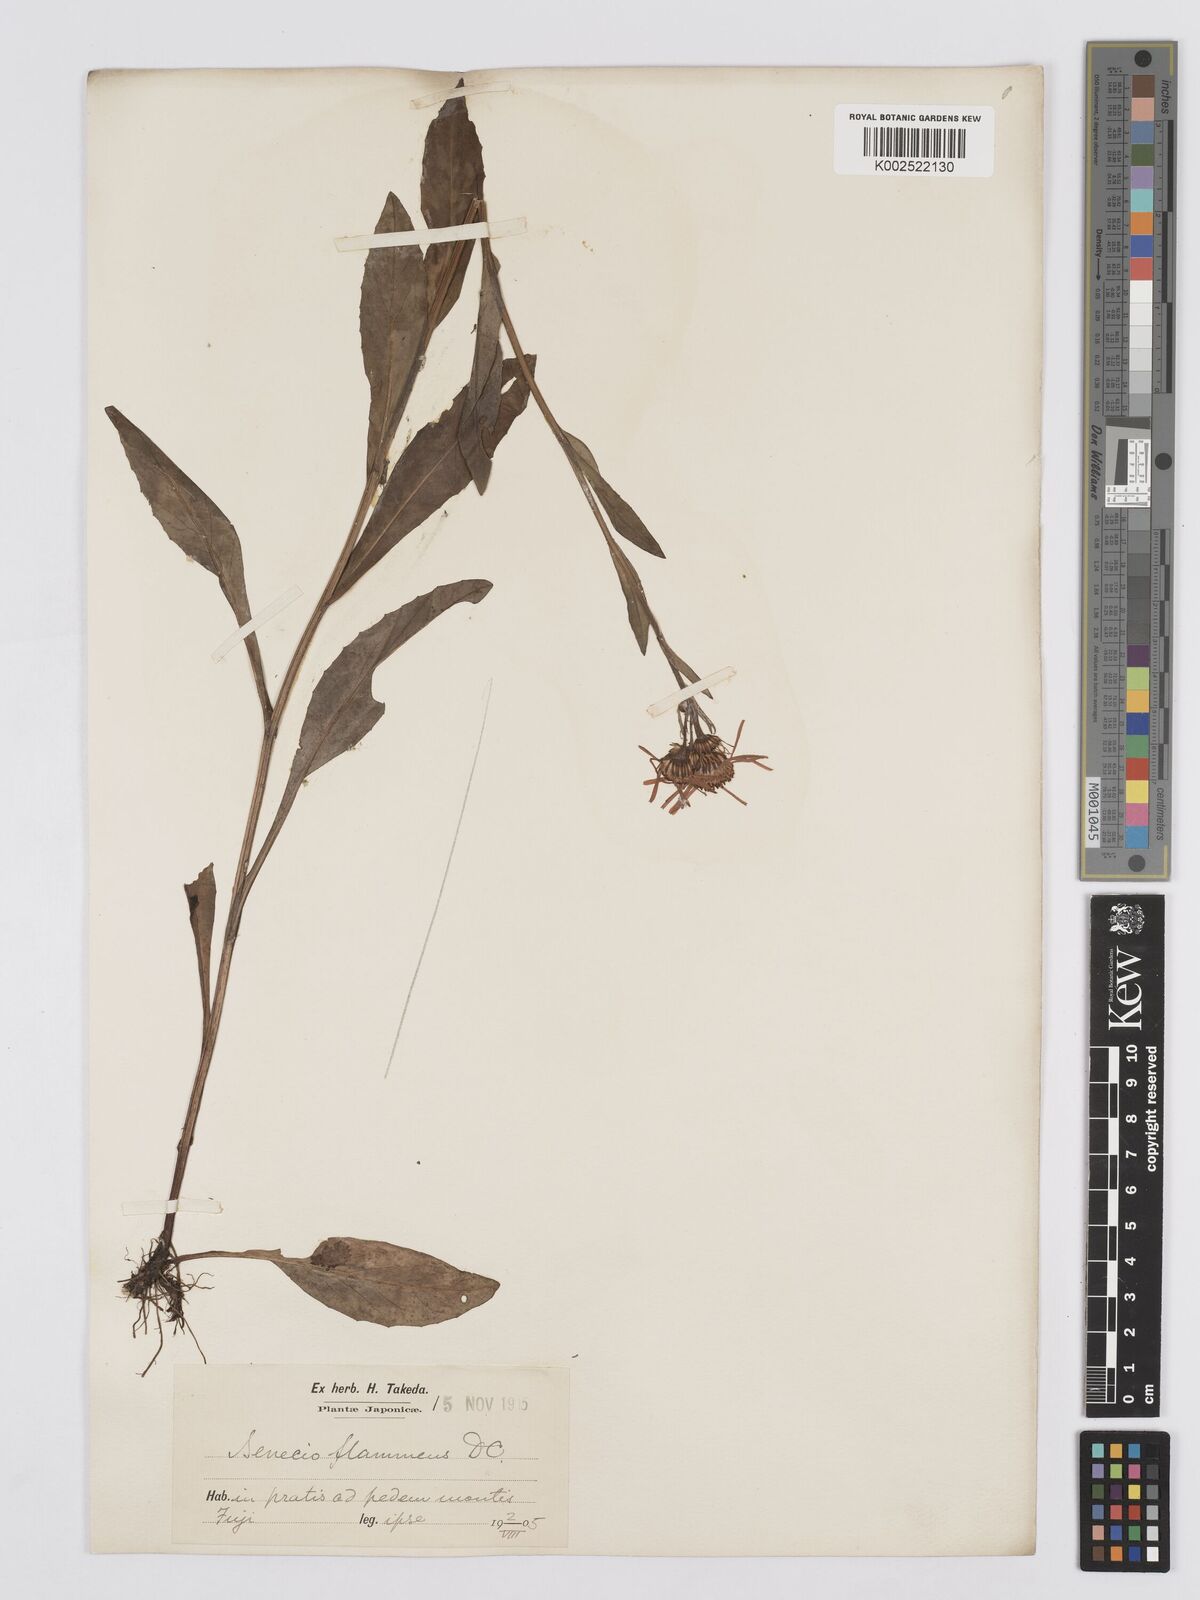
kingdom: Plantae
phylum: Tracheophyta
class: Magnoliopsida
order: Asterales
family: Asteraceae
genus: Tephroseris
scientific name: Tephroseris flammea
